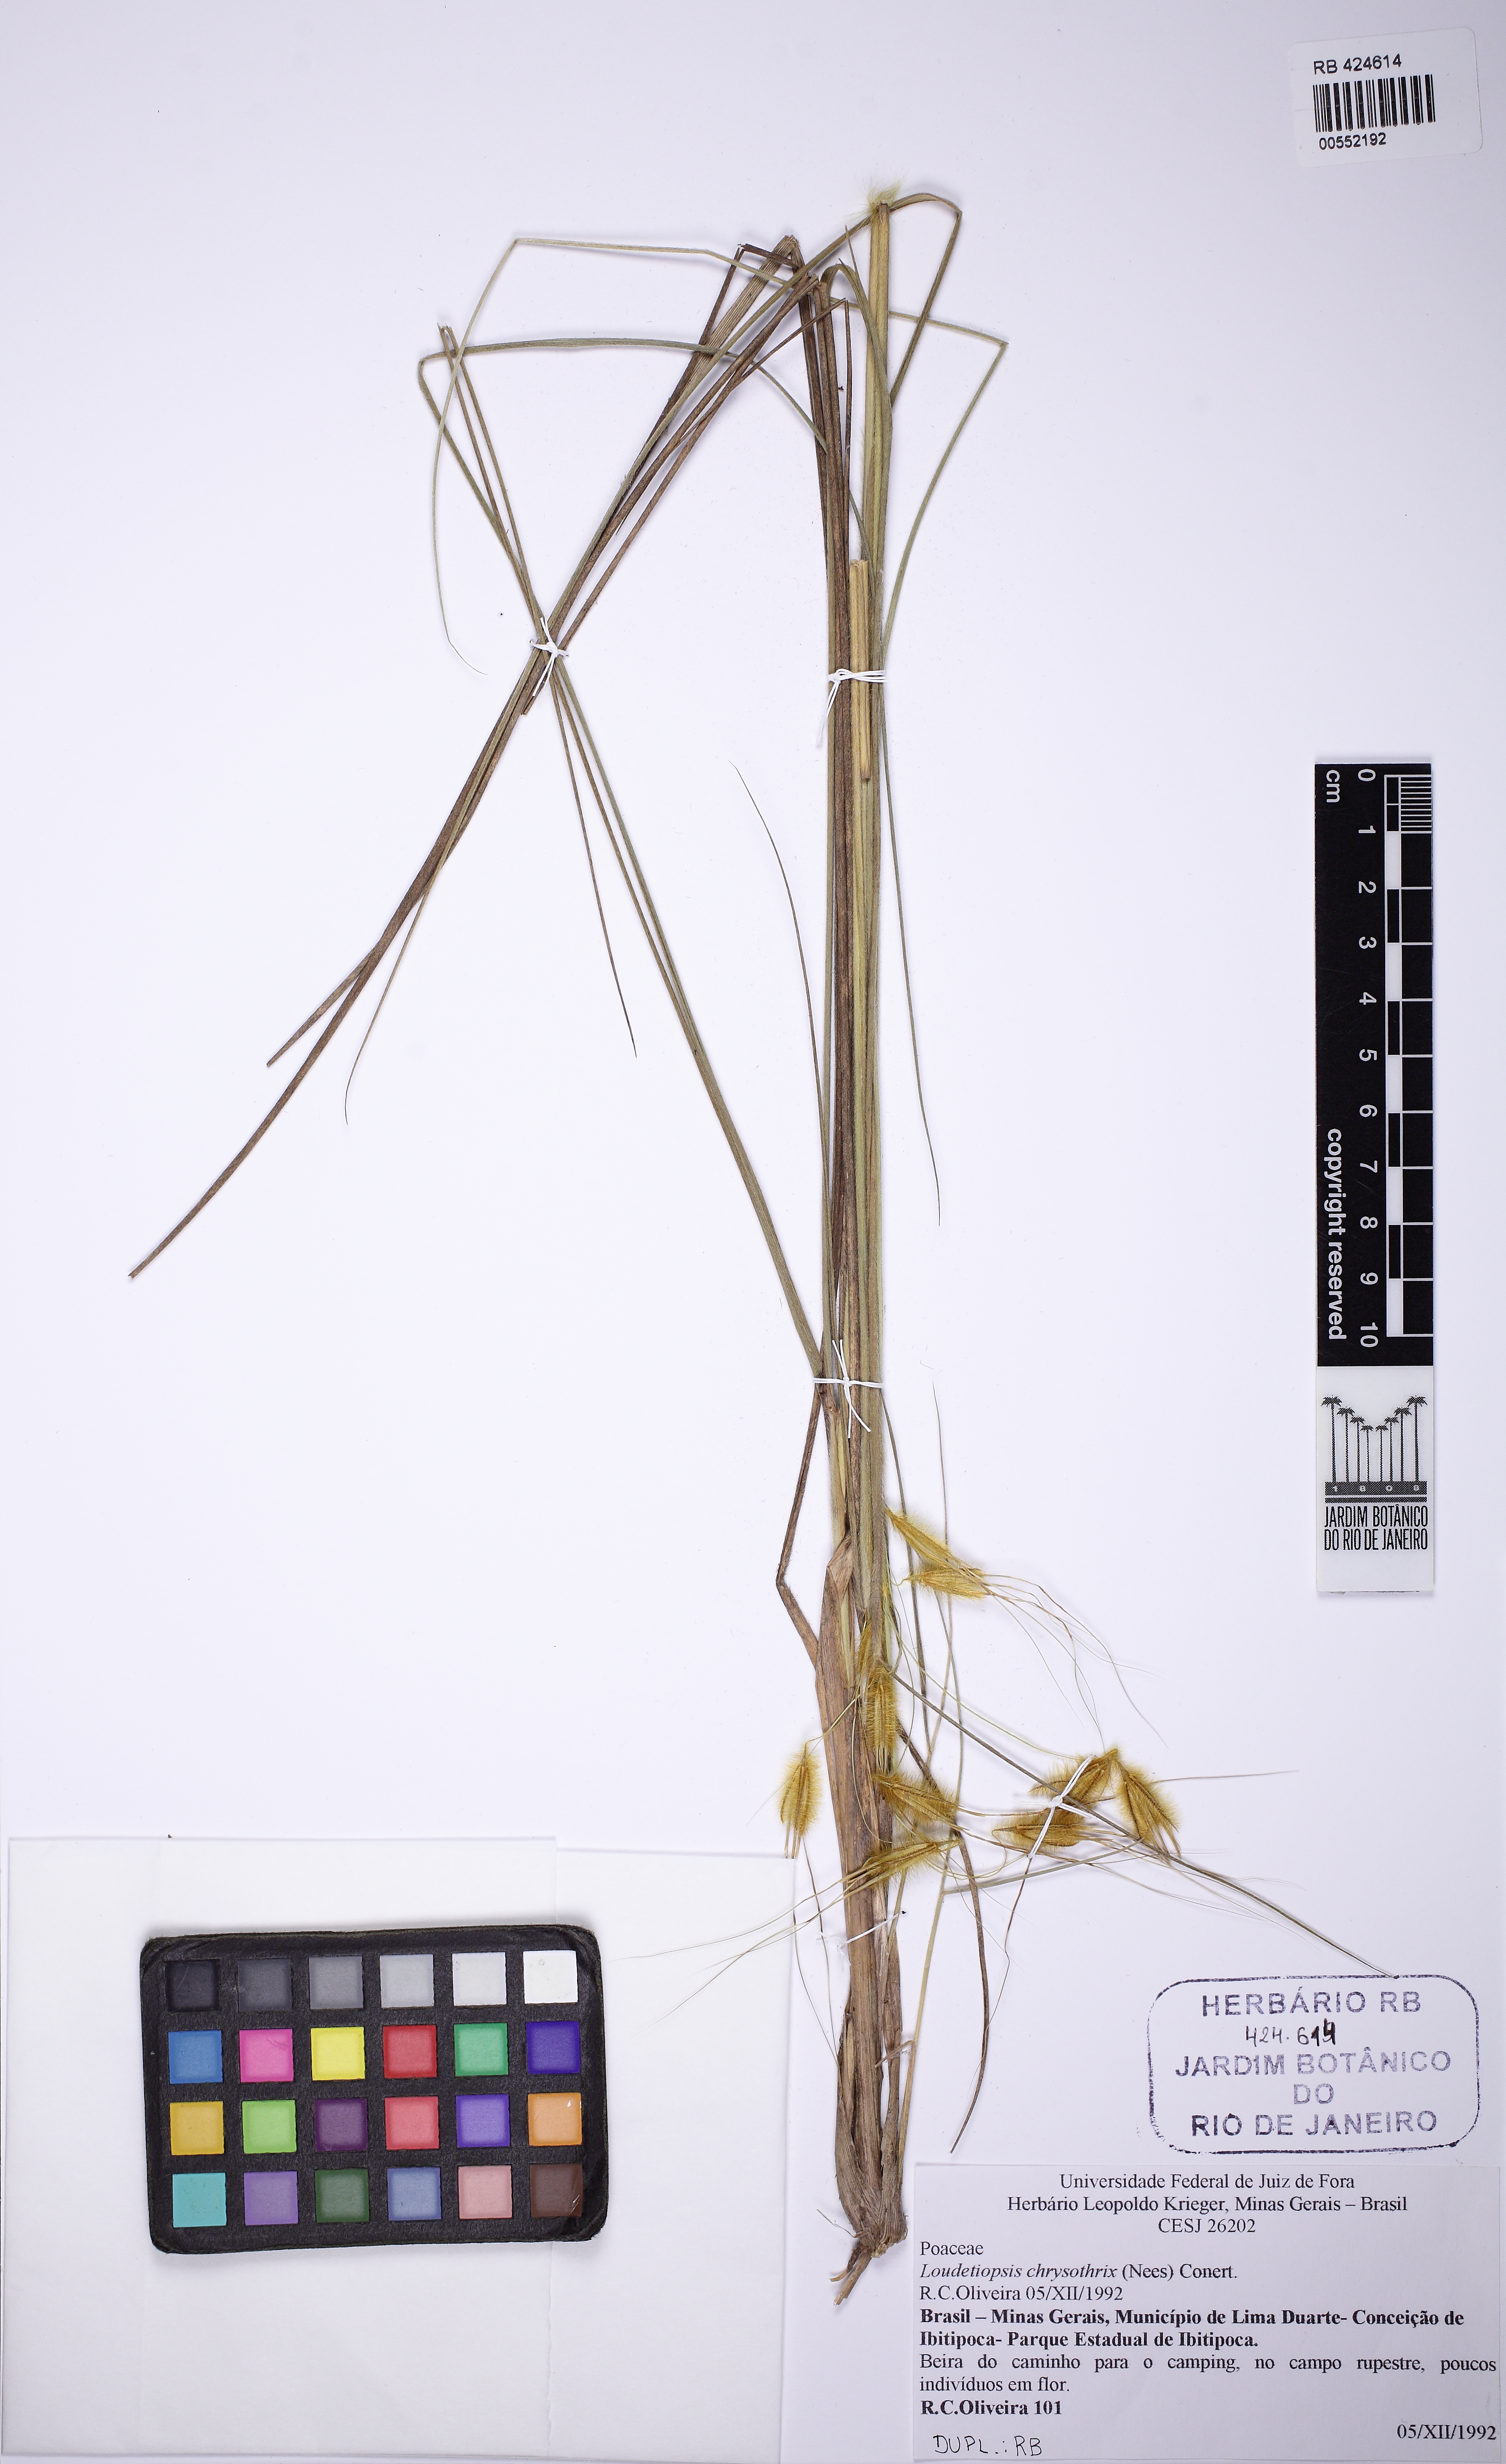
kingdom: Plantae
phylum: Tracheophyta
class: Liliopsida
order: Poales
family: Poaceae
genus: Loudetiopsis
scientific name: Loudetiopsis chrysothrix
